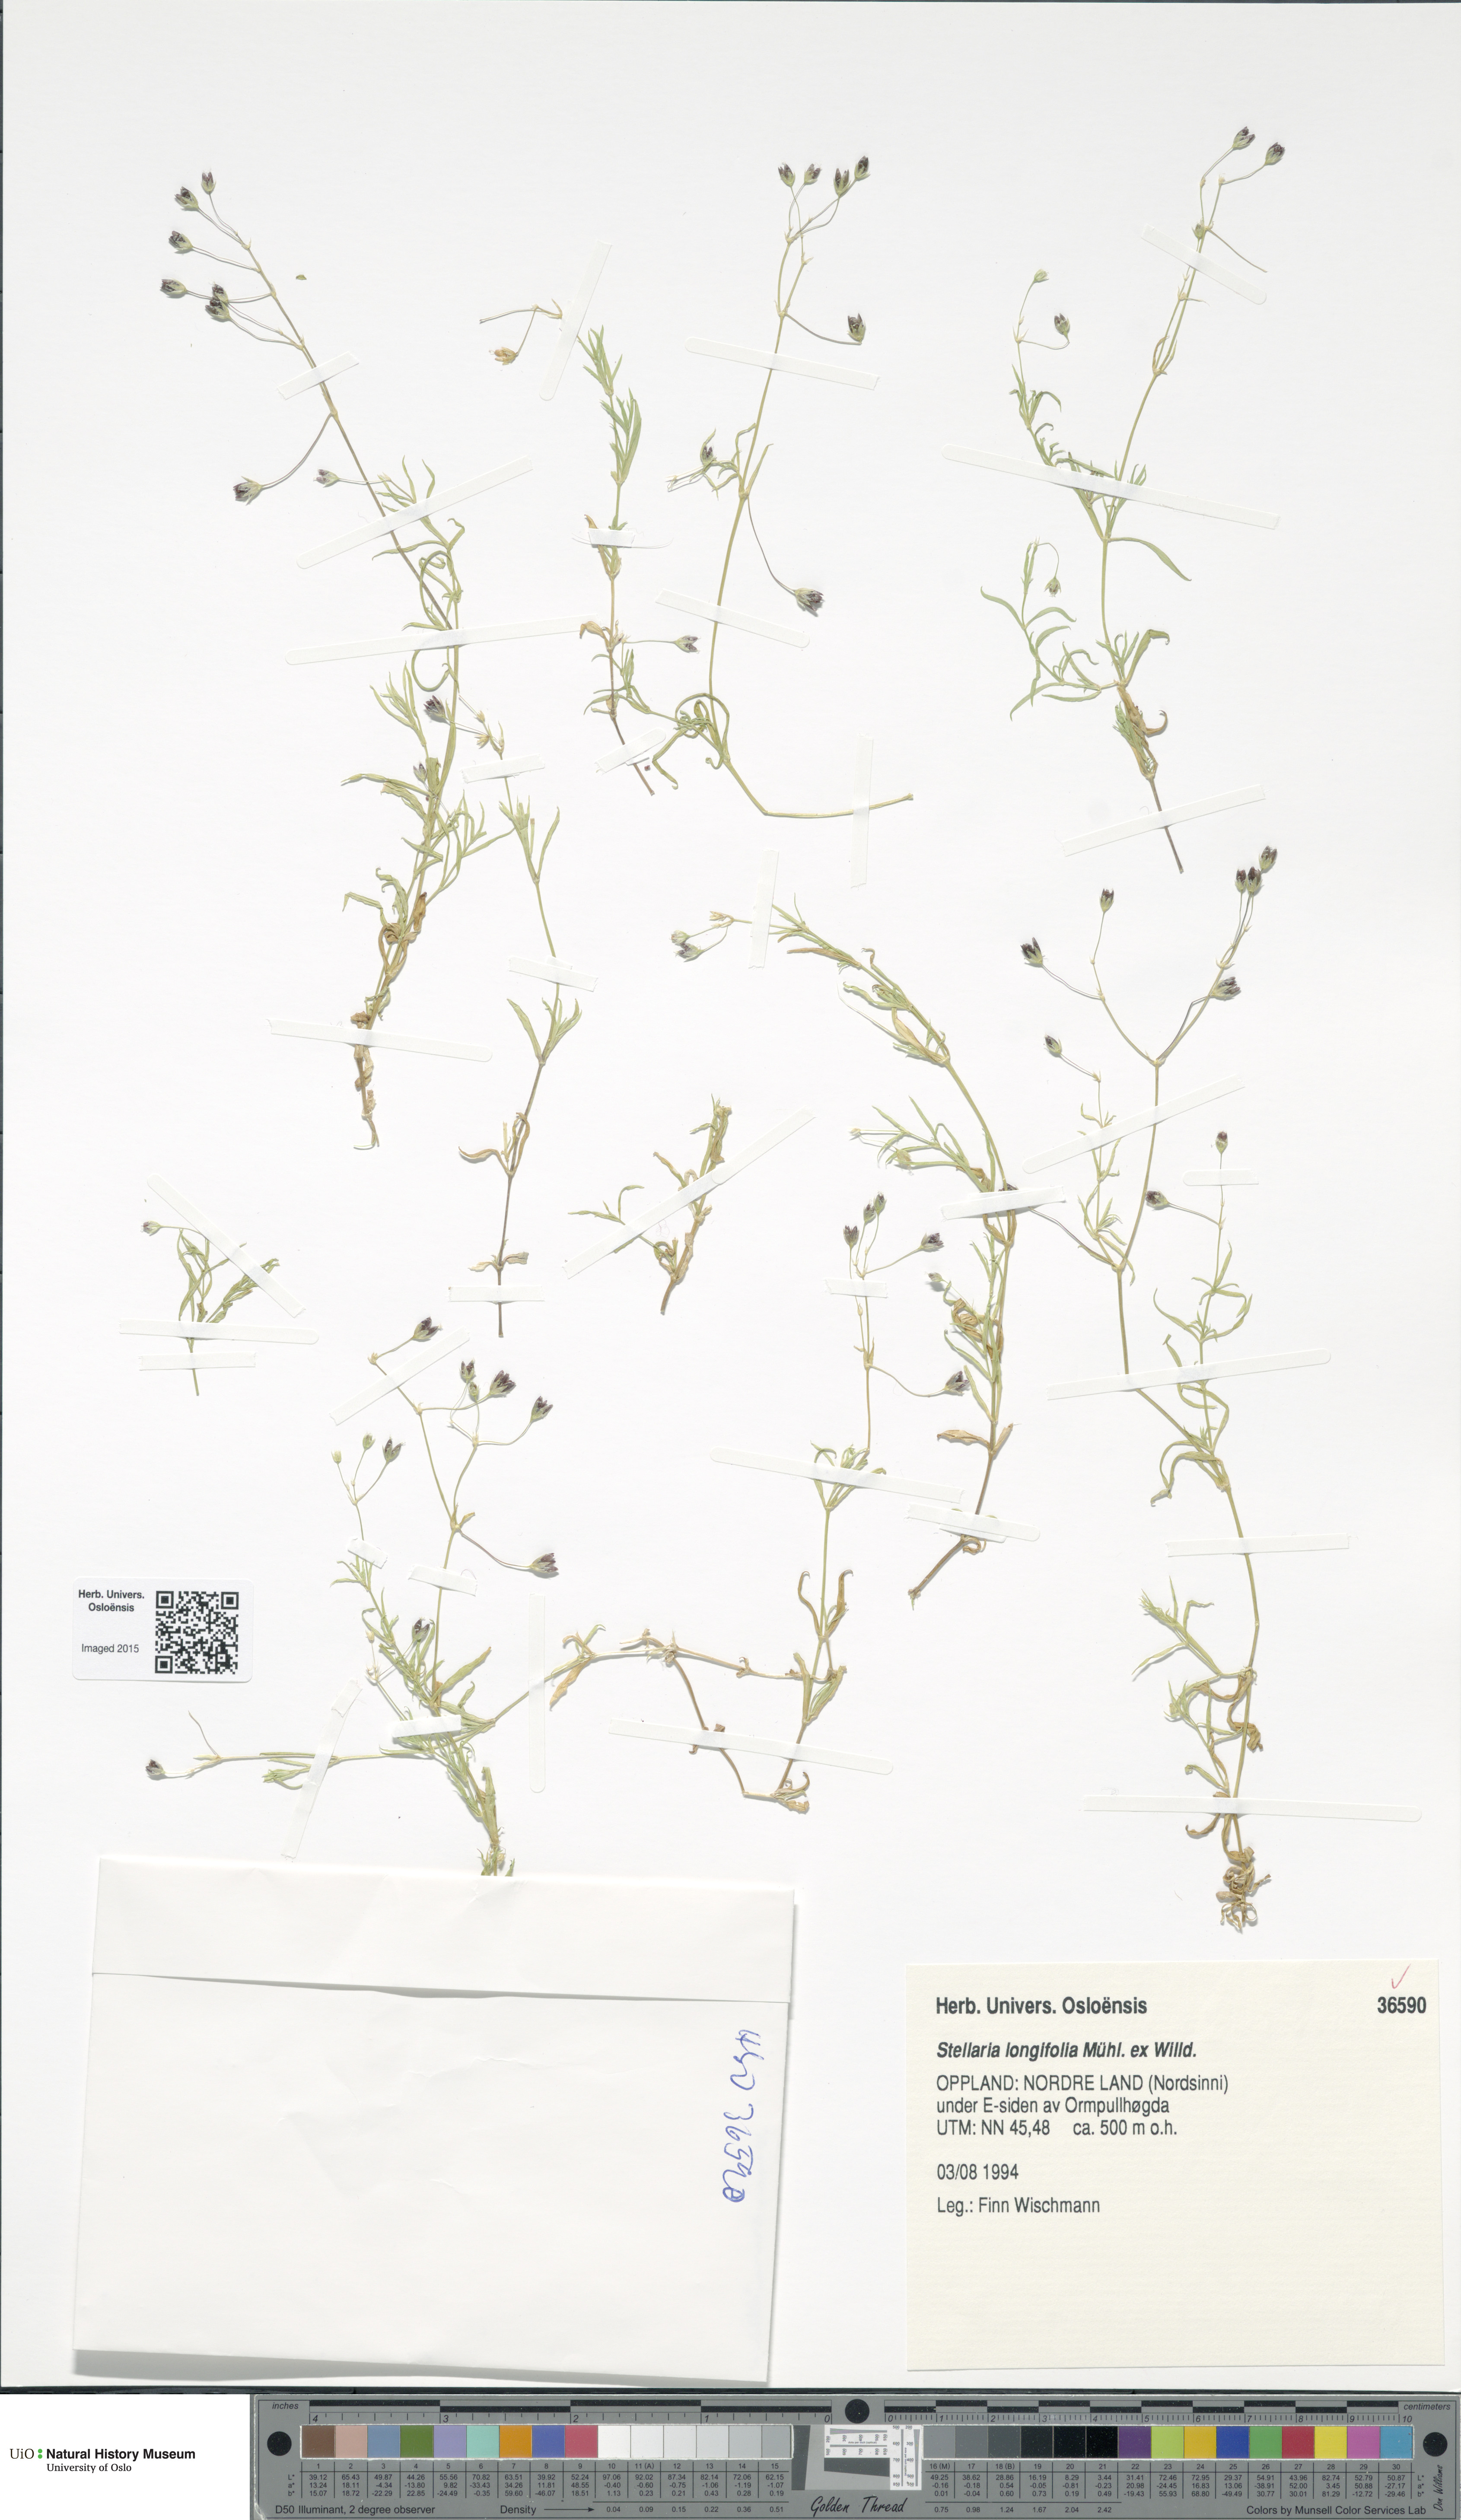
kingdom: Plantae
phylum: Tracheophyta
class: Magnoliopsida
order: Caryophyllales
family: Caryophyllaceae
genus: Stellaria
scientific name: Stellaria longifolia
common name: Long-leaved chickweed
